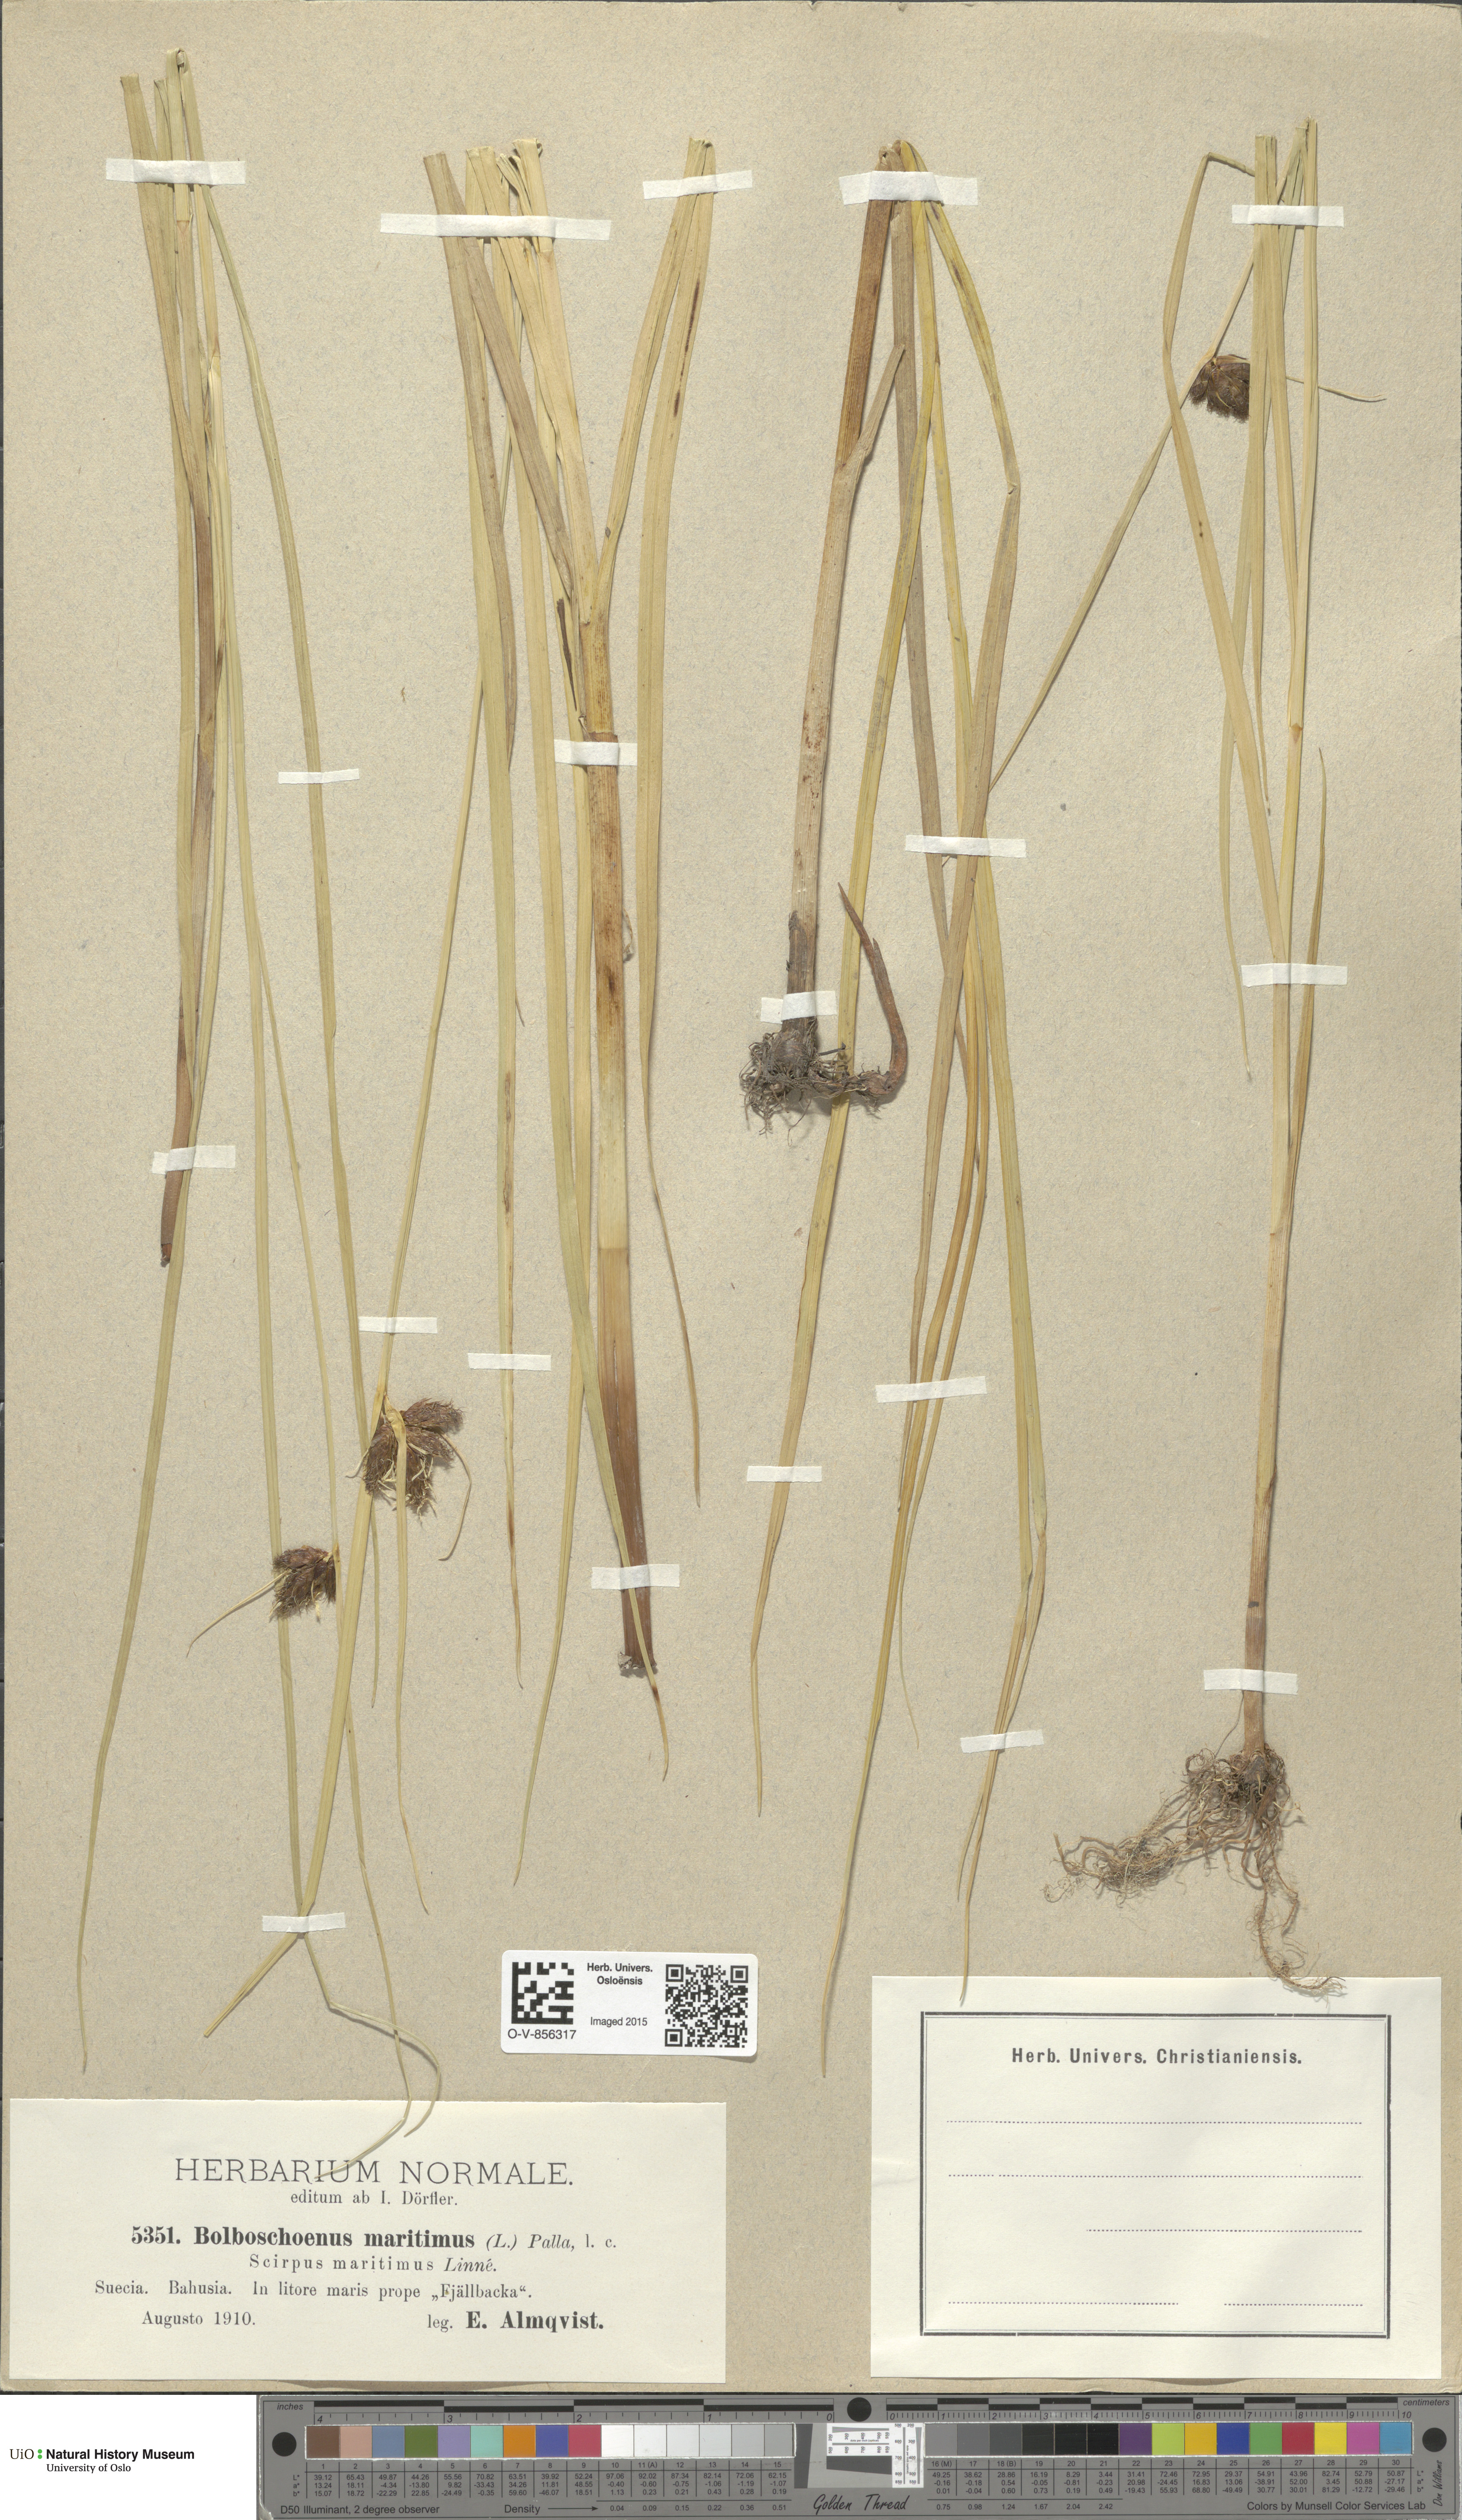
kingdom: Plantae
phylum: Tracheophyta
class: Liliopsida
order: Poales
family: Cyperaceae
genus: Bolboschoenus
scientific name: Bolboschoenus maritimus
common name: Sea club-rush
